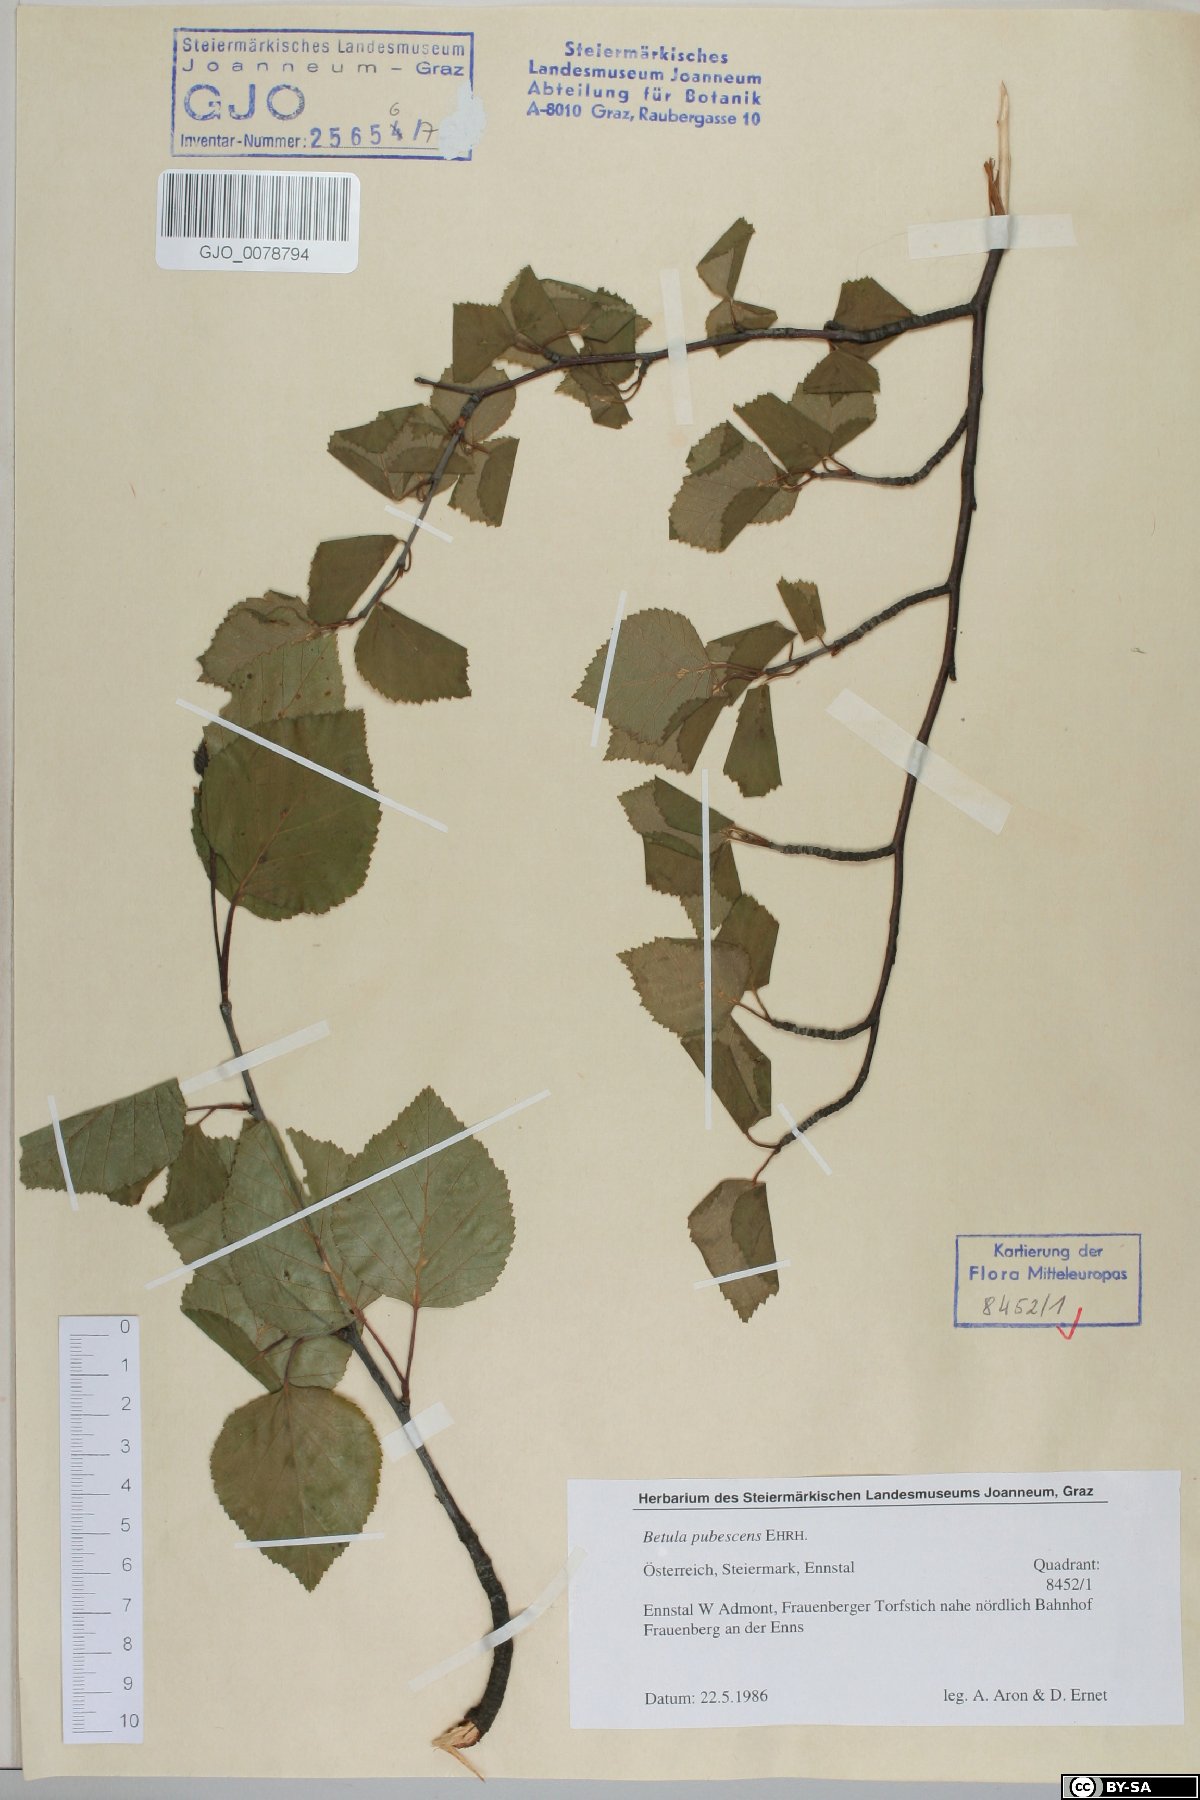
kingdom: Plantae
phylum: Tracheophyta
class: Magnoliopsida
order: Fagales
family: Betulaceae
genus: Betula
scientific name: Betula pubescens
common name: Downy birch
